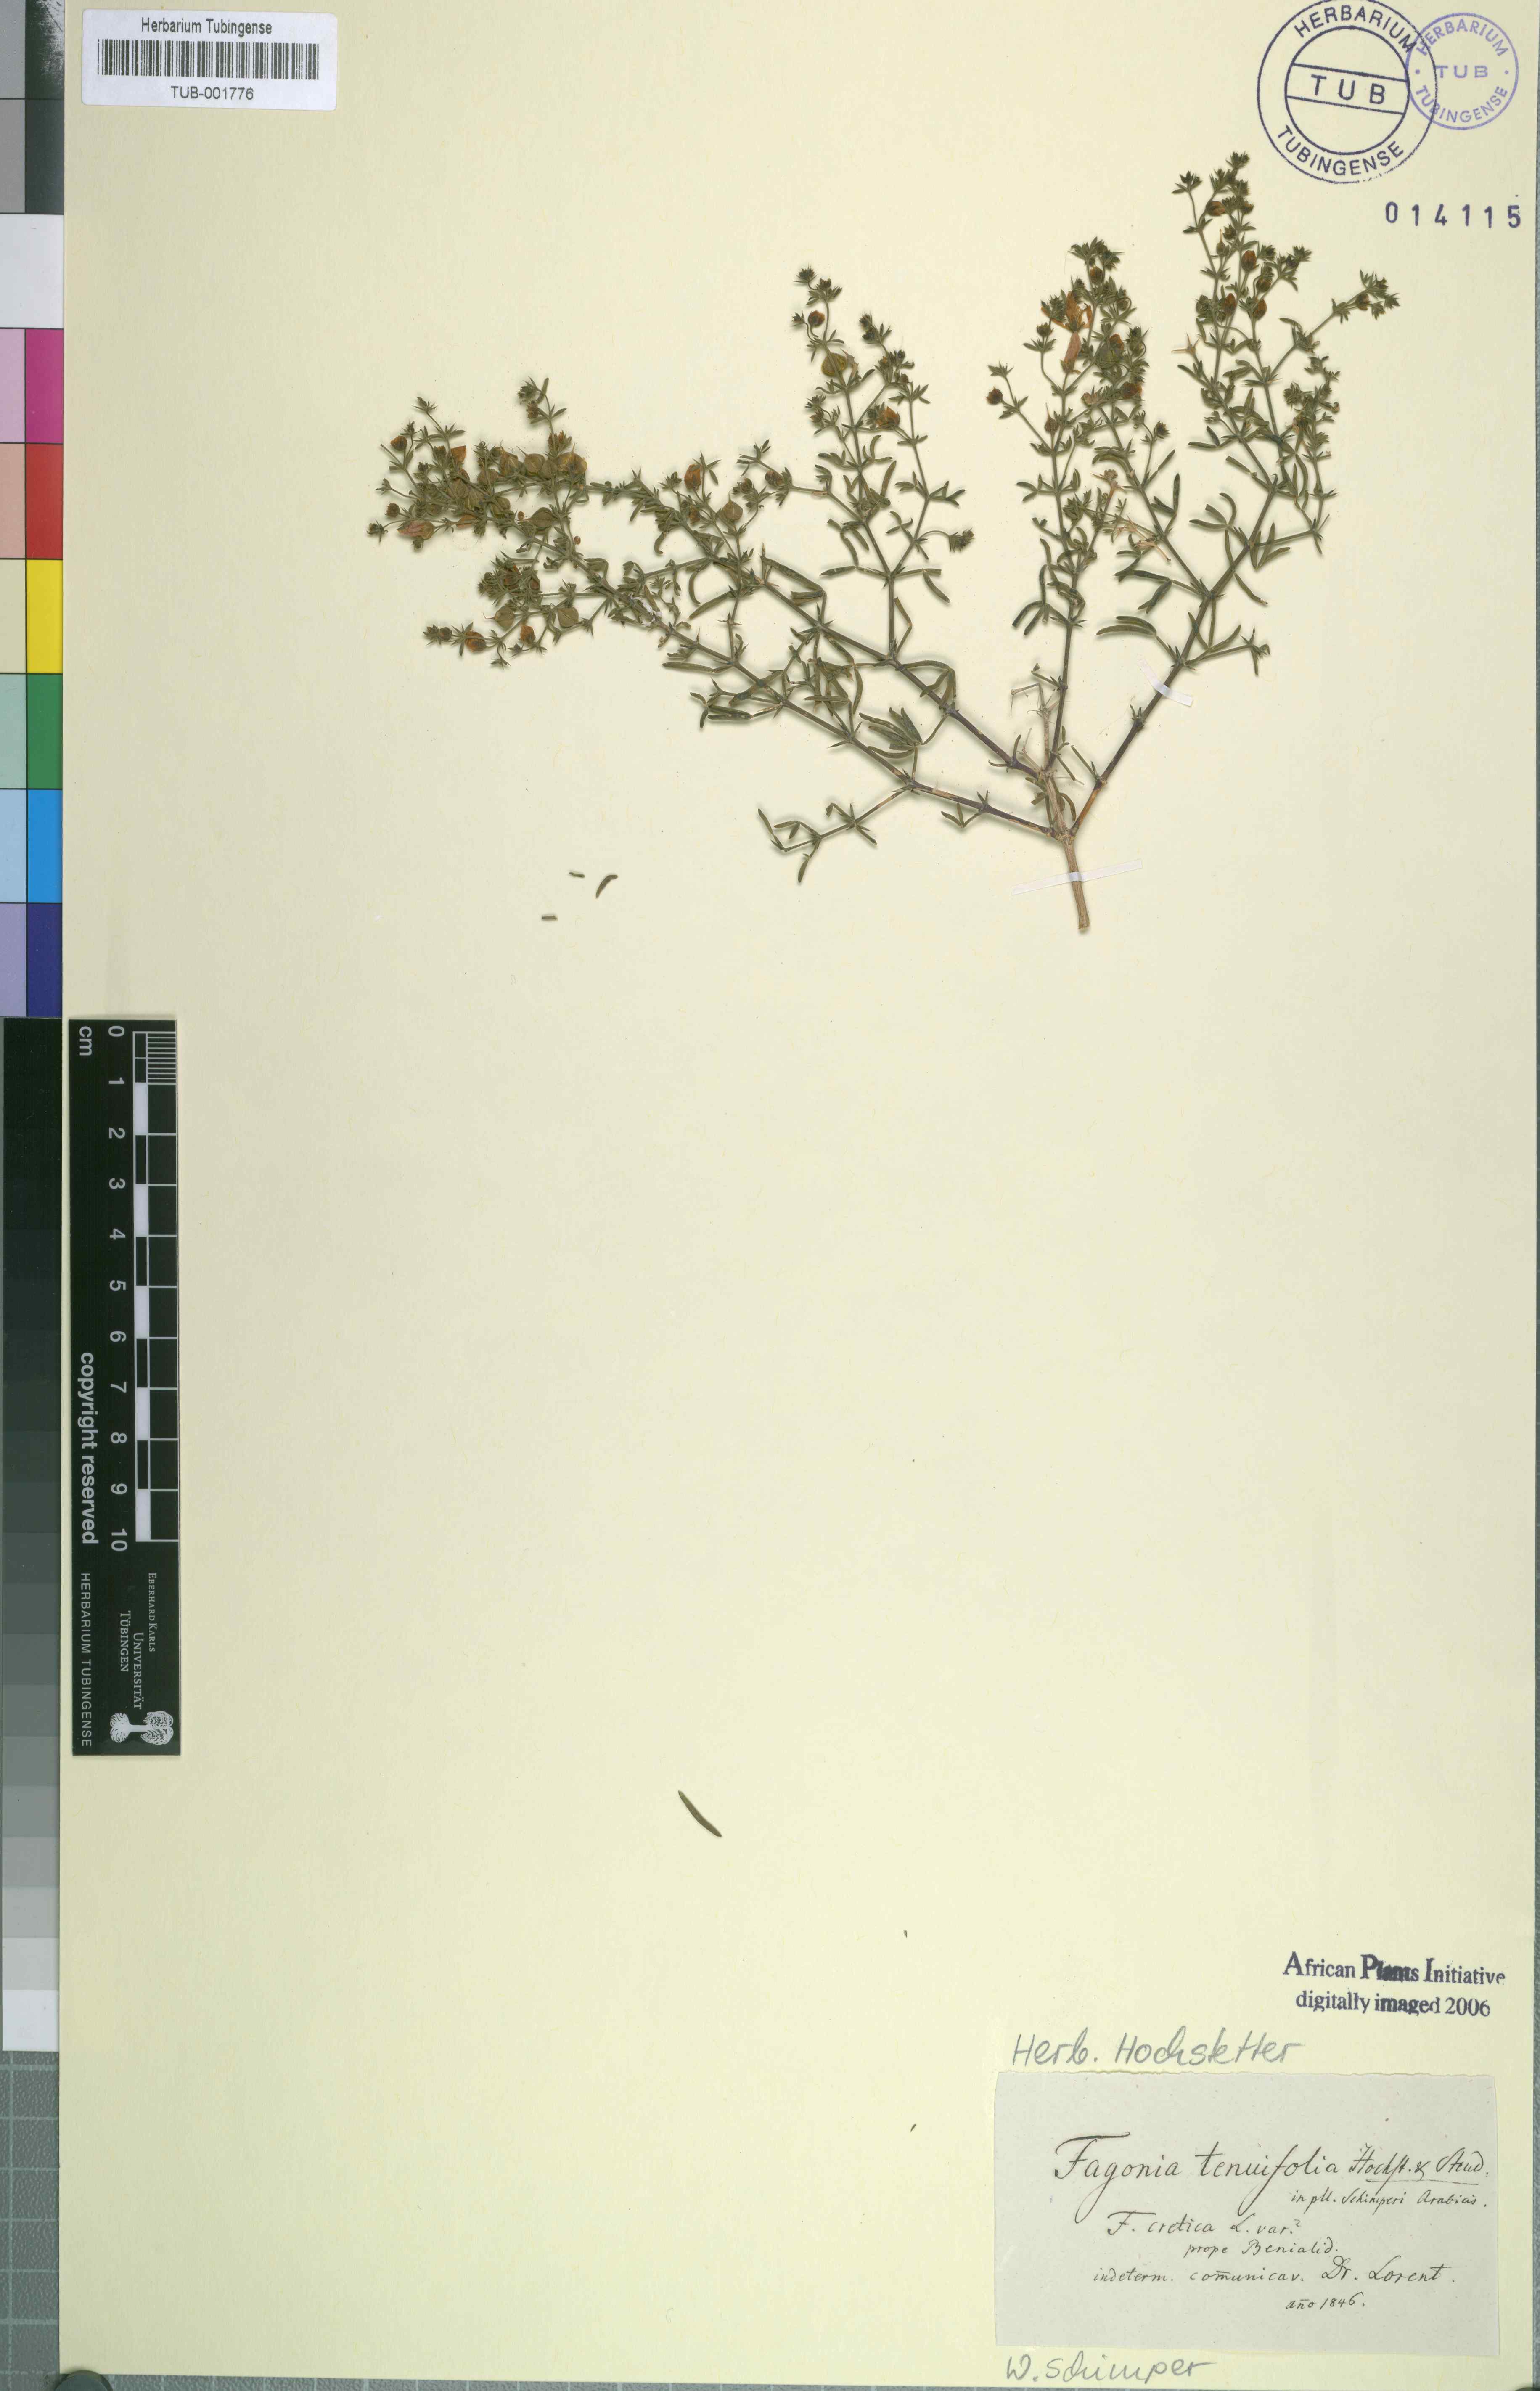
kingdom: Plantae
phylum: Tracheophyta
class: Magnoliopsida
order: Zygophyllales
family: Zygophyllaceae
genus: Fagonia
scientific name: Fagonia cretica
